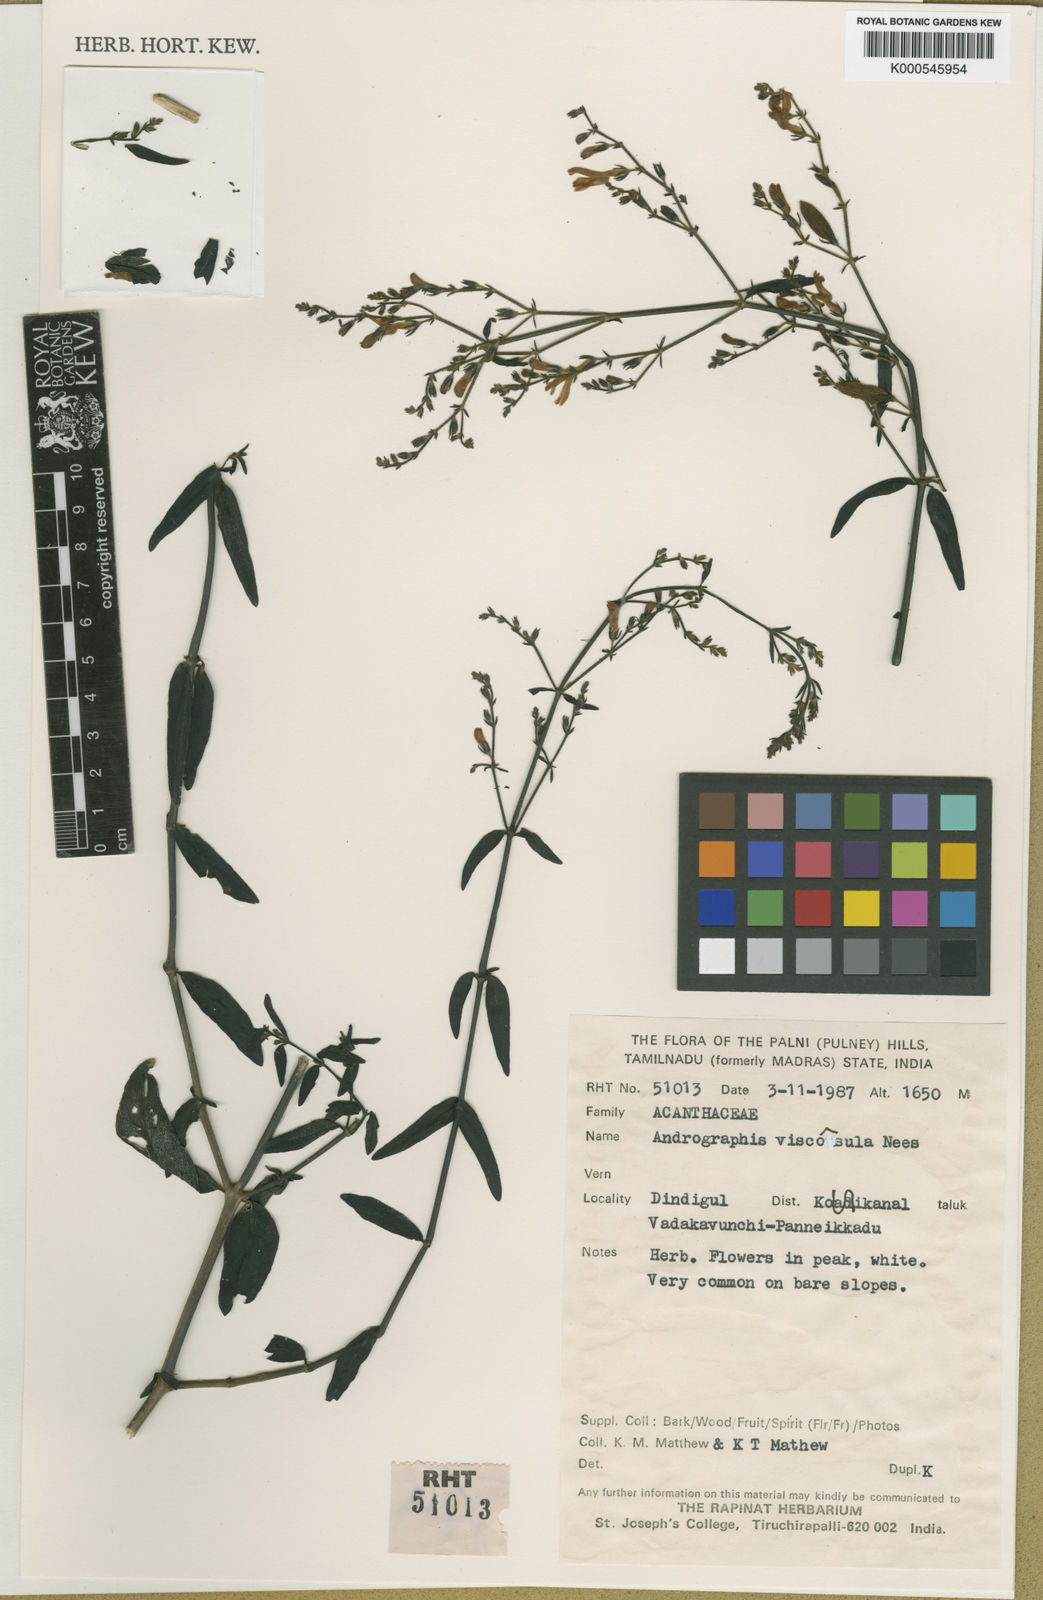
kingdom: Plantae
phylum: Tracheophyta
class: Magnoliopsida
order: Lamiales
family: Acanthaceae
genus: Andrographis
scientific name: Andrographis viscosula
